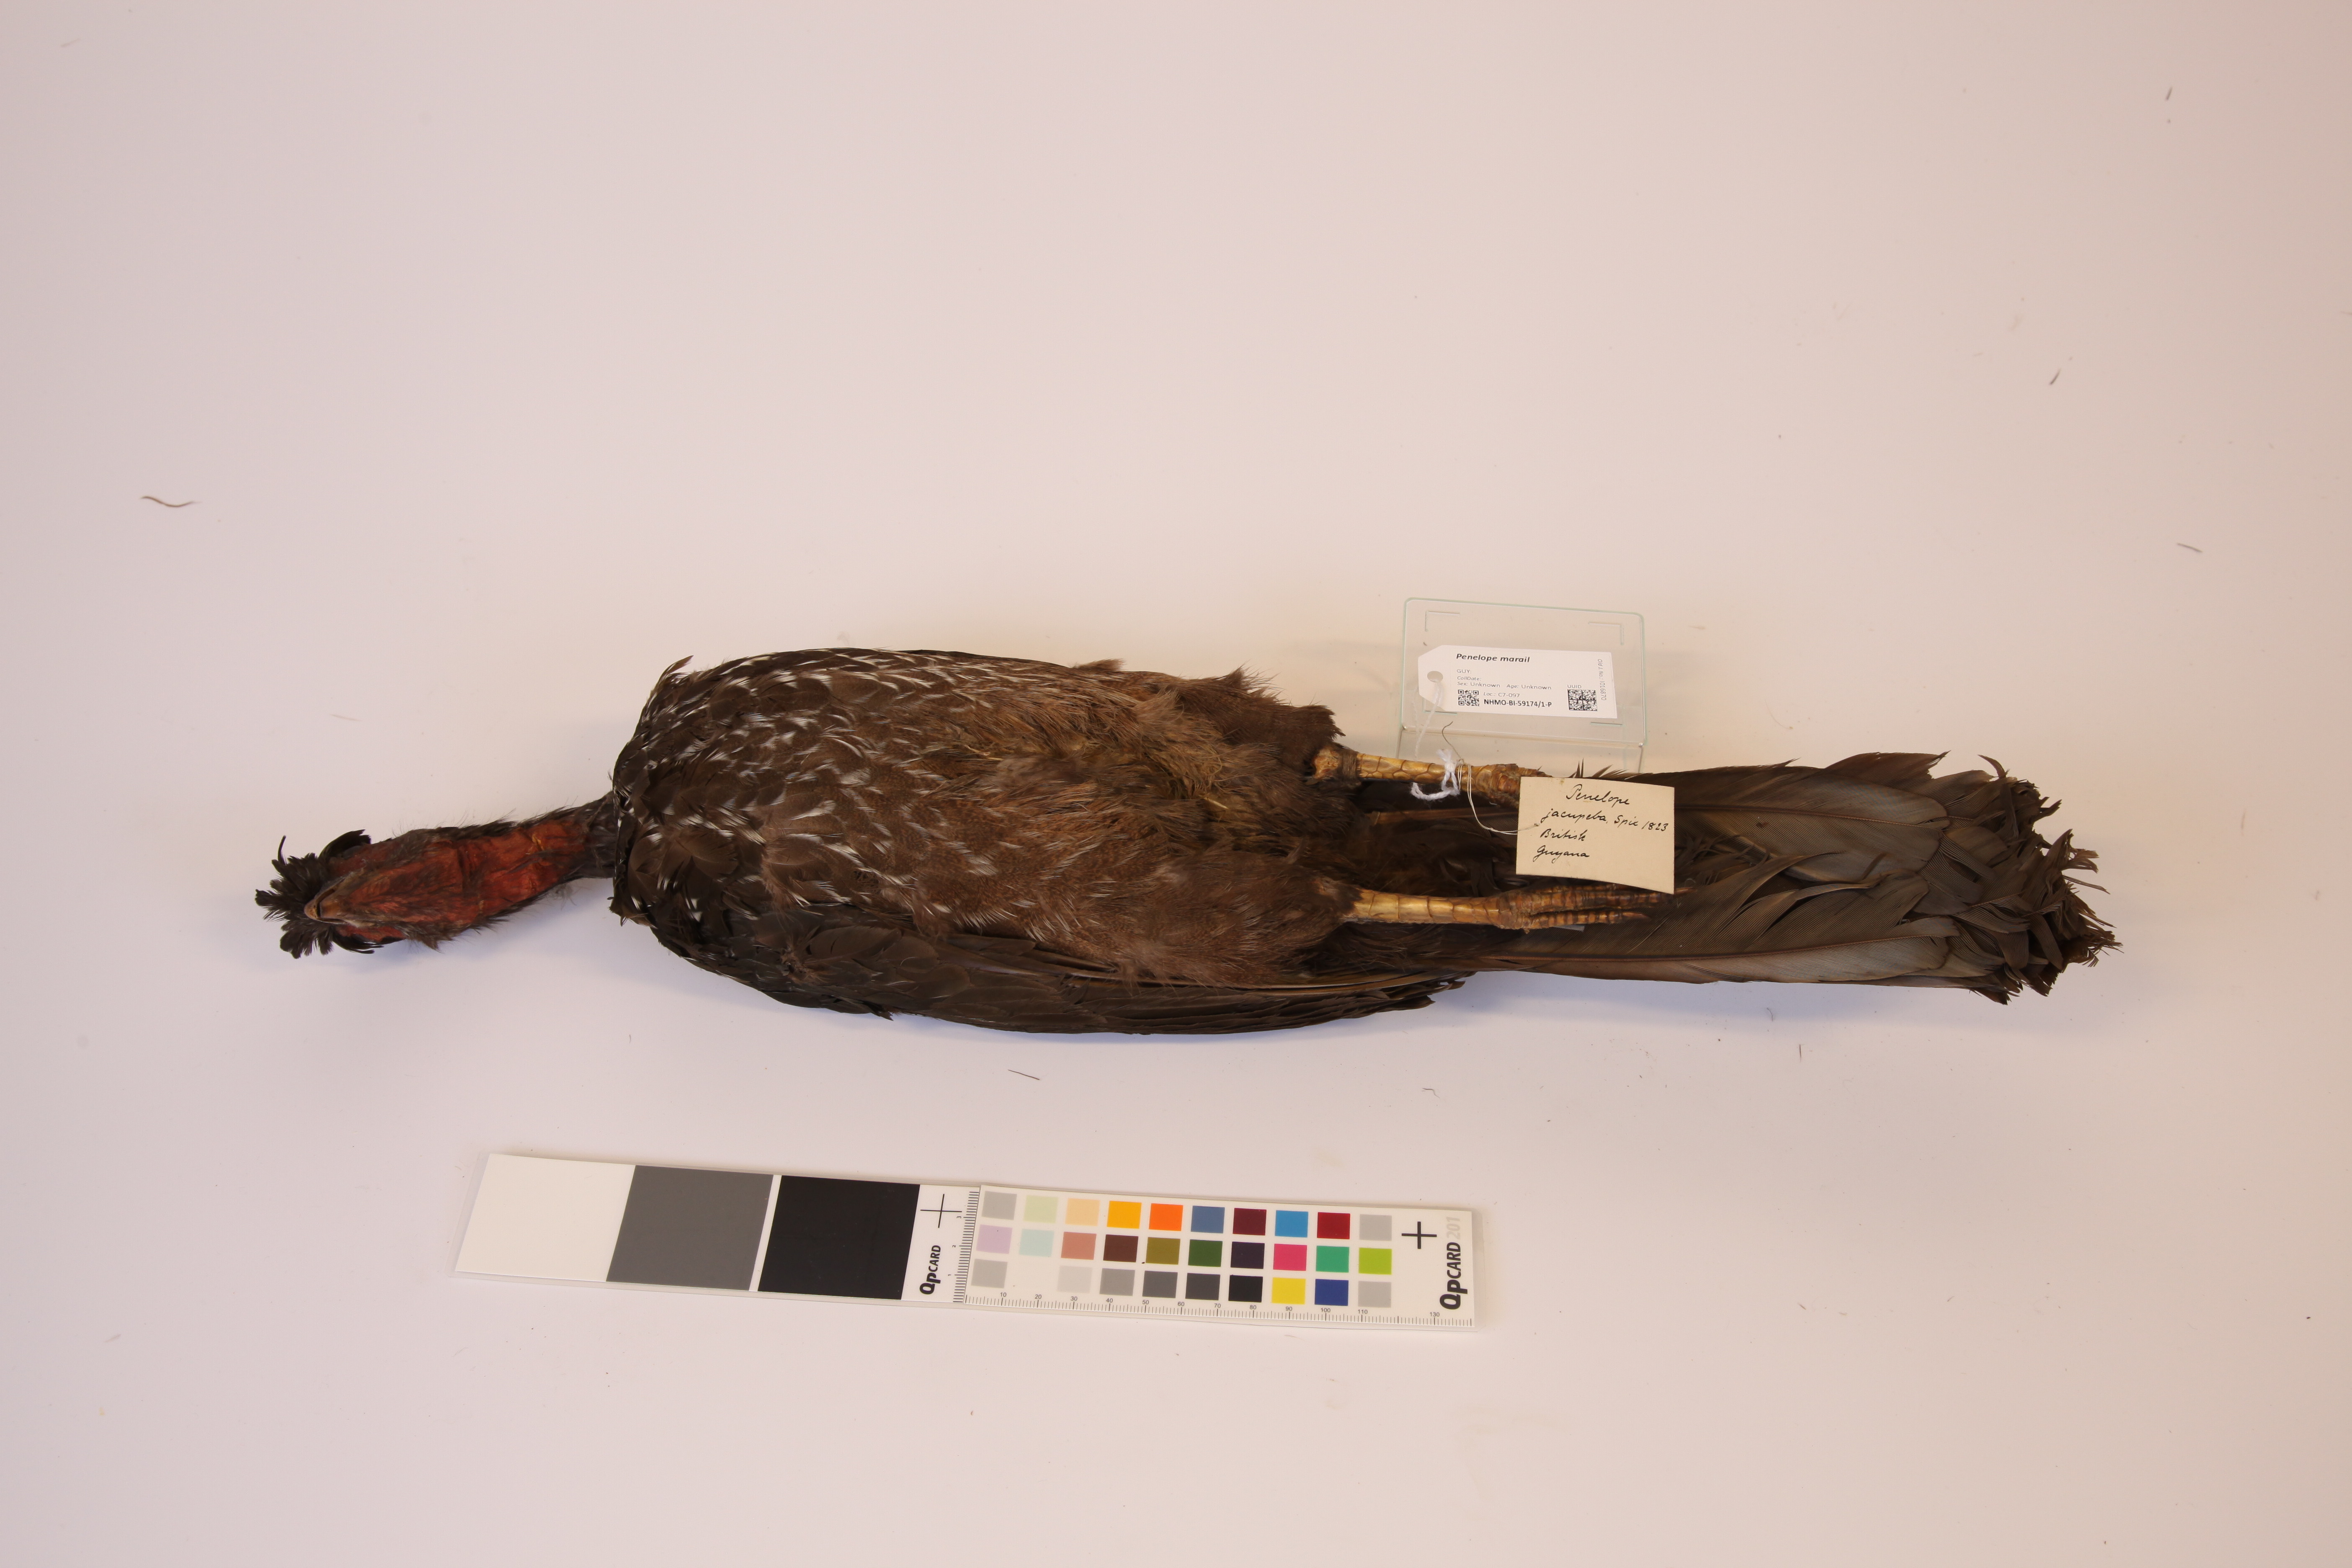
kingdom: Animalia
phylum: Chordata
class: Aves
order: Galliformes
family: Cracidae
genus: Penelope
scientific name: Penelope marail
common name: Marail guan
